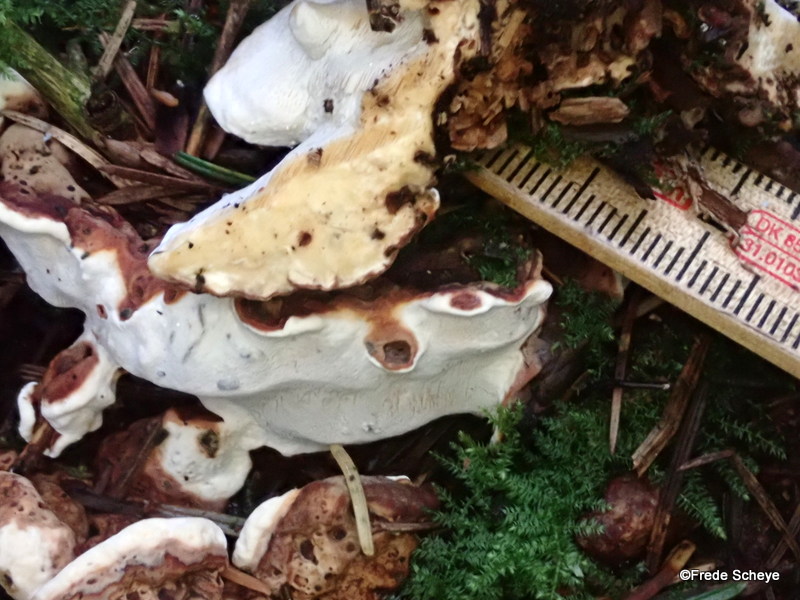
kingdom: Fungi
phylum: Basidiomycota
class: Agaricomycetes
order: Russulales
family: Bondarzewiaceae
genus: Heterobasidion
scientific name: Heterobasidion annosum
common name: almindelig rodfordærver
